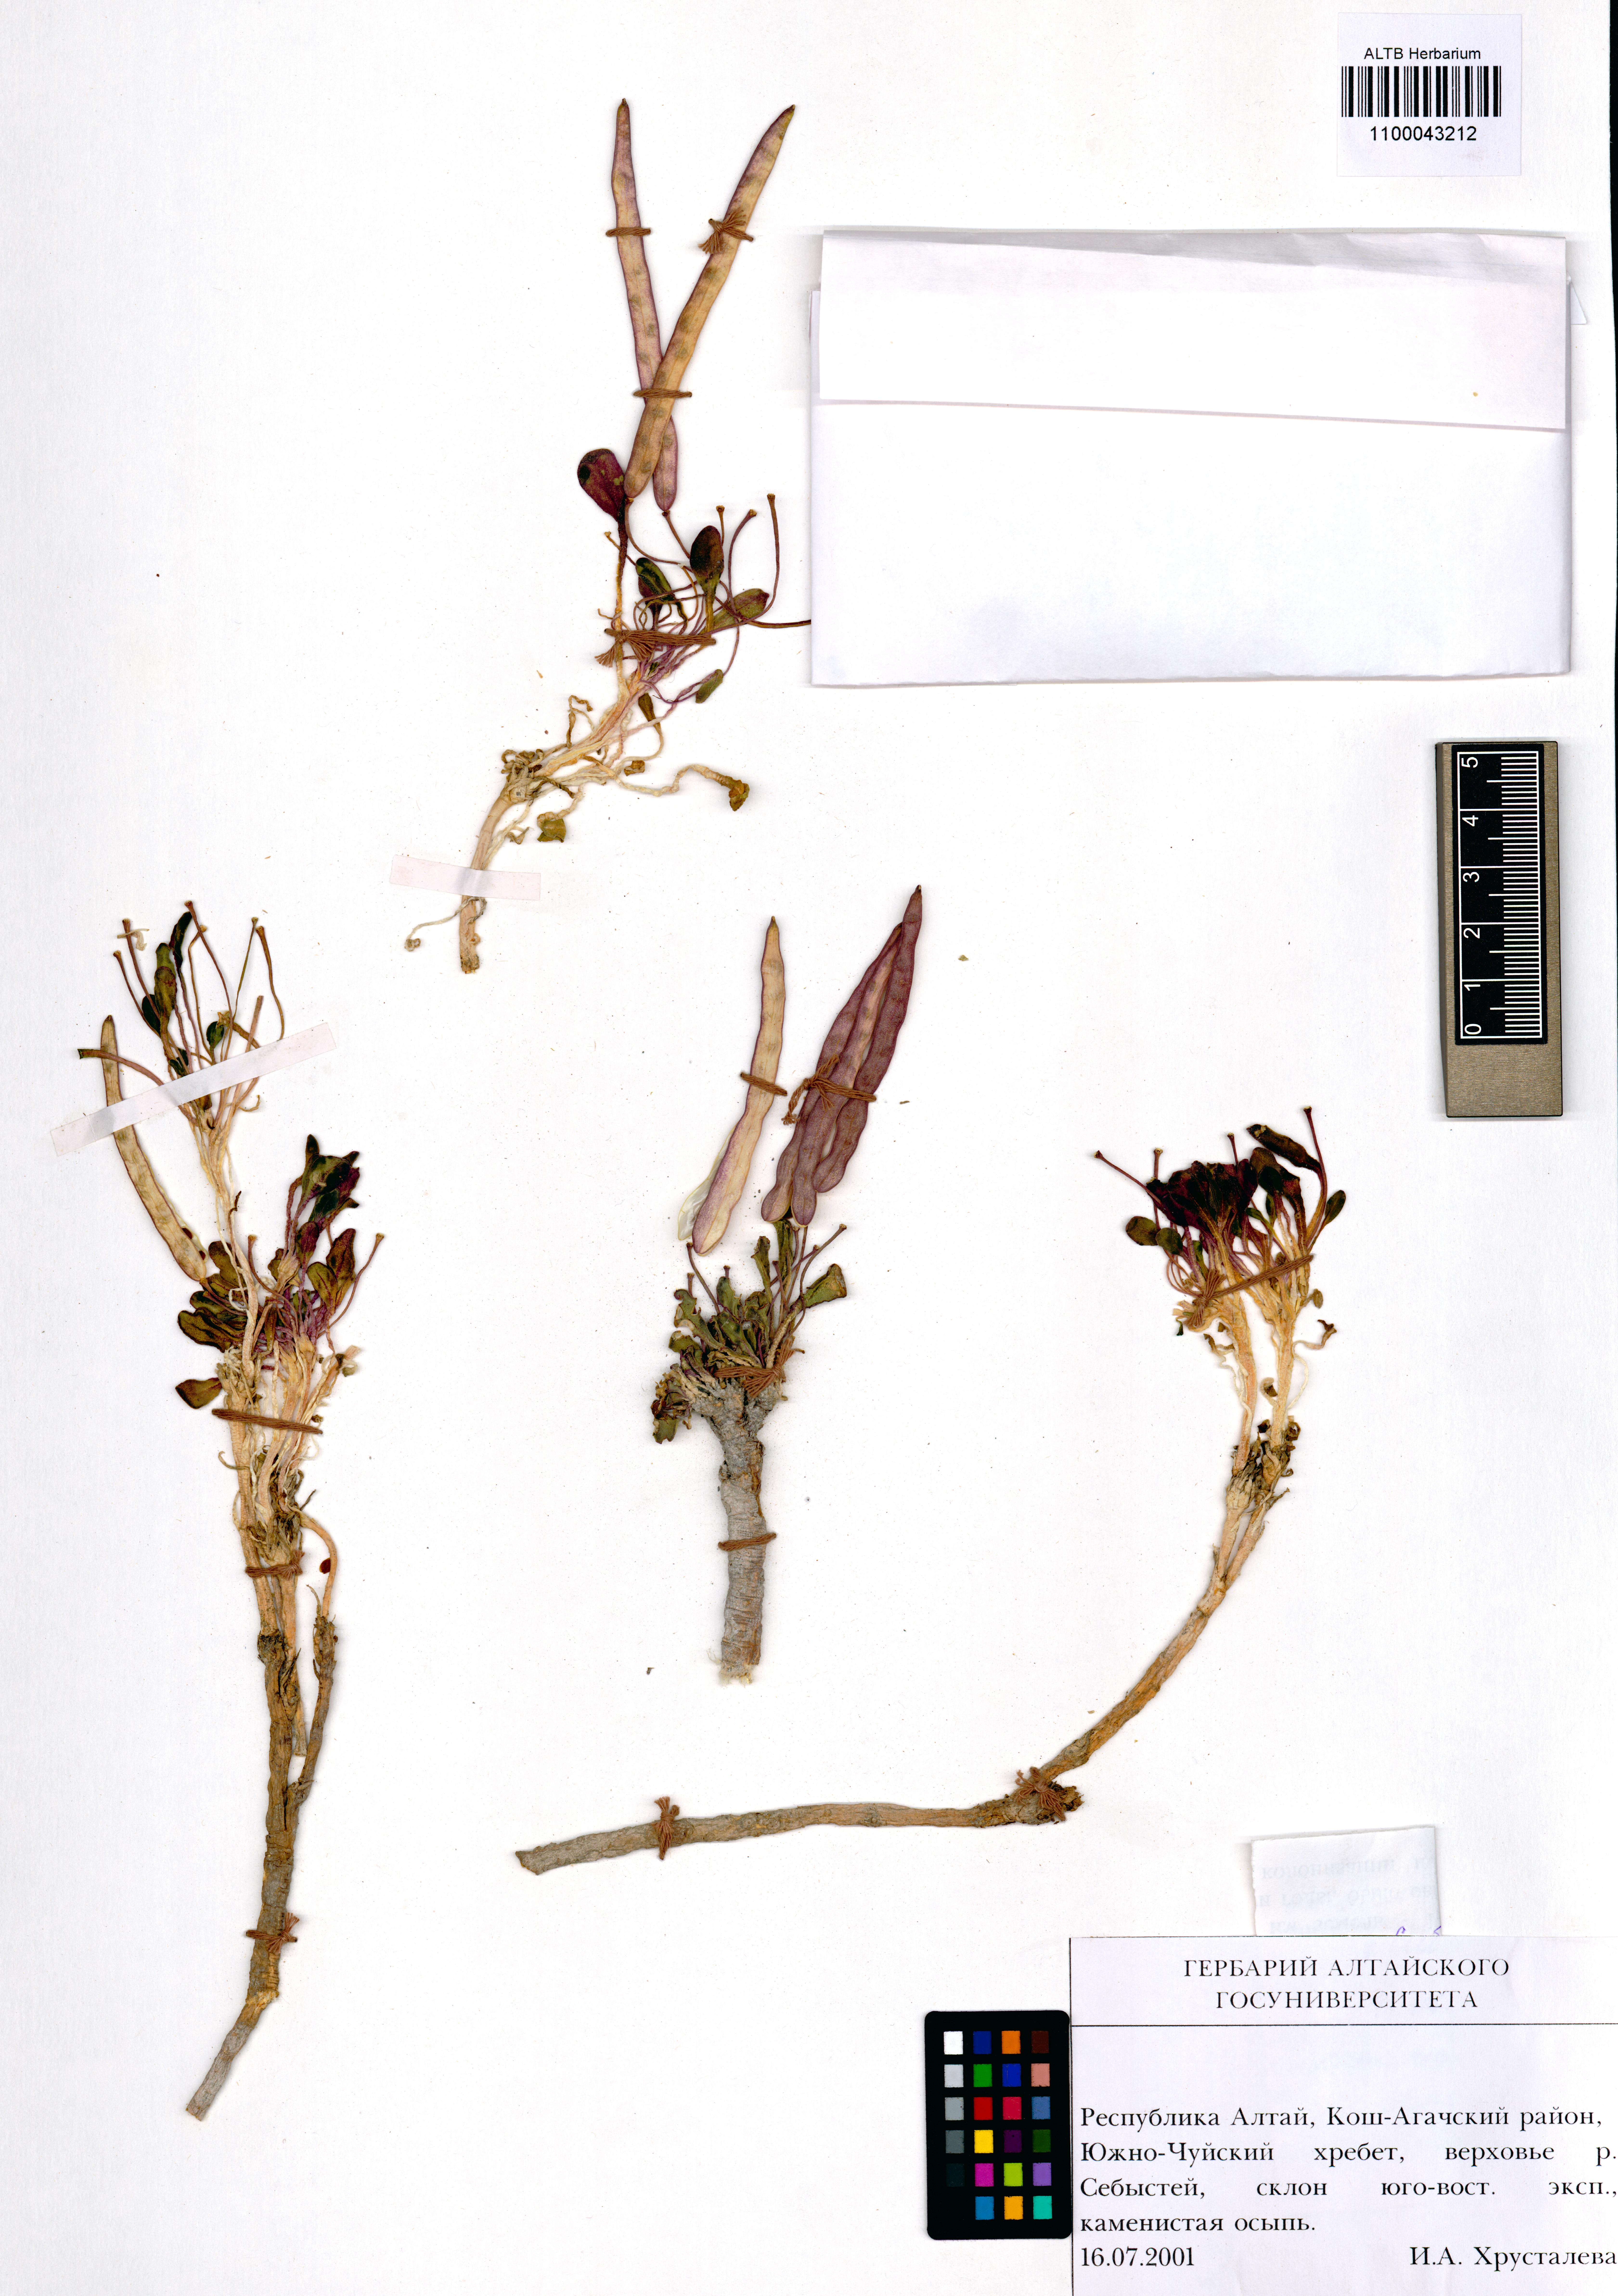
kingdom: Plantae
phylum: Tracheophyta
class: Magnoliopsida
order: Brassicales
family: Brassicaceae
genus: Leiospora
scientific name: Leiospora exscapa
